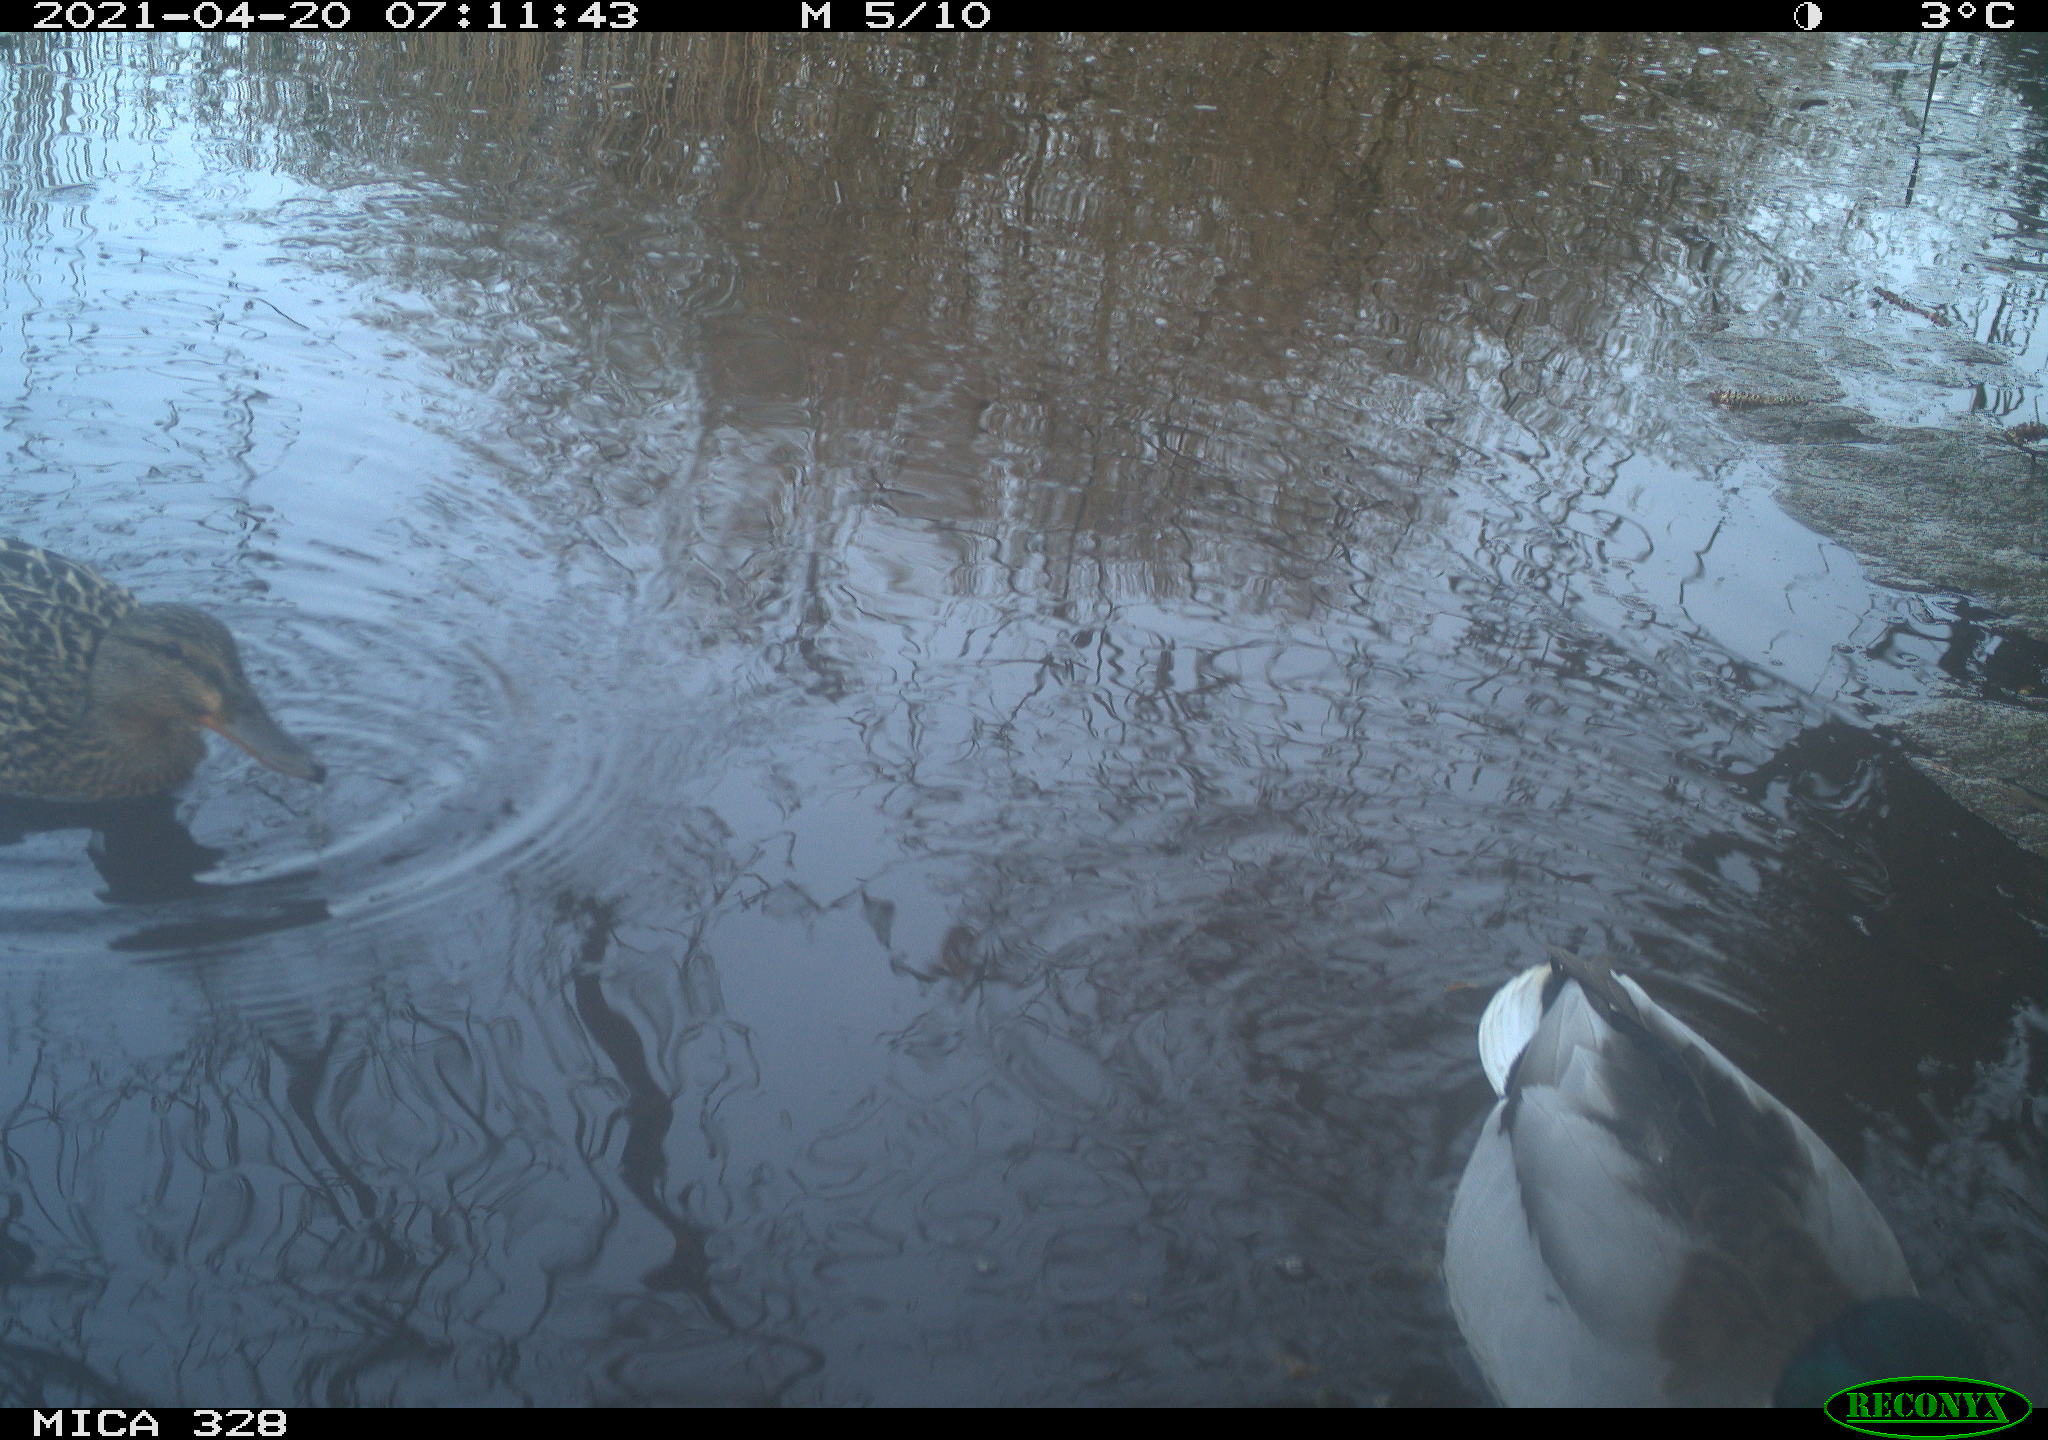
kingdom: Animalia
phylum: Chordata
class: Aves
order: Anseriformes
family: Anatidae
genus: Anas
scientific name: Anas platyrhynchos
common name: Mallard
